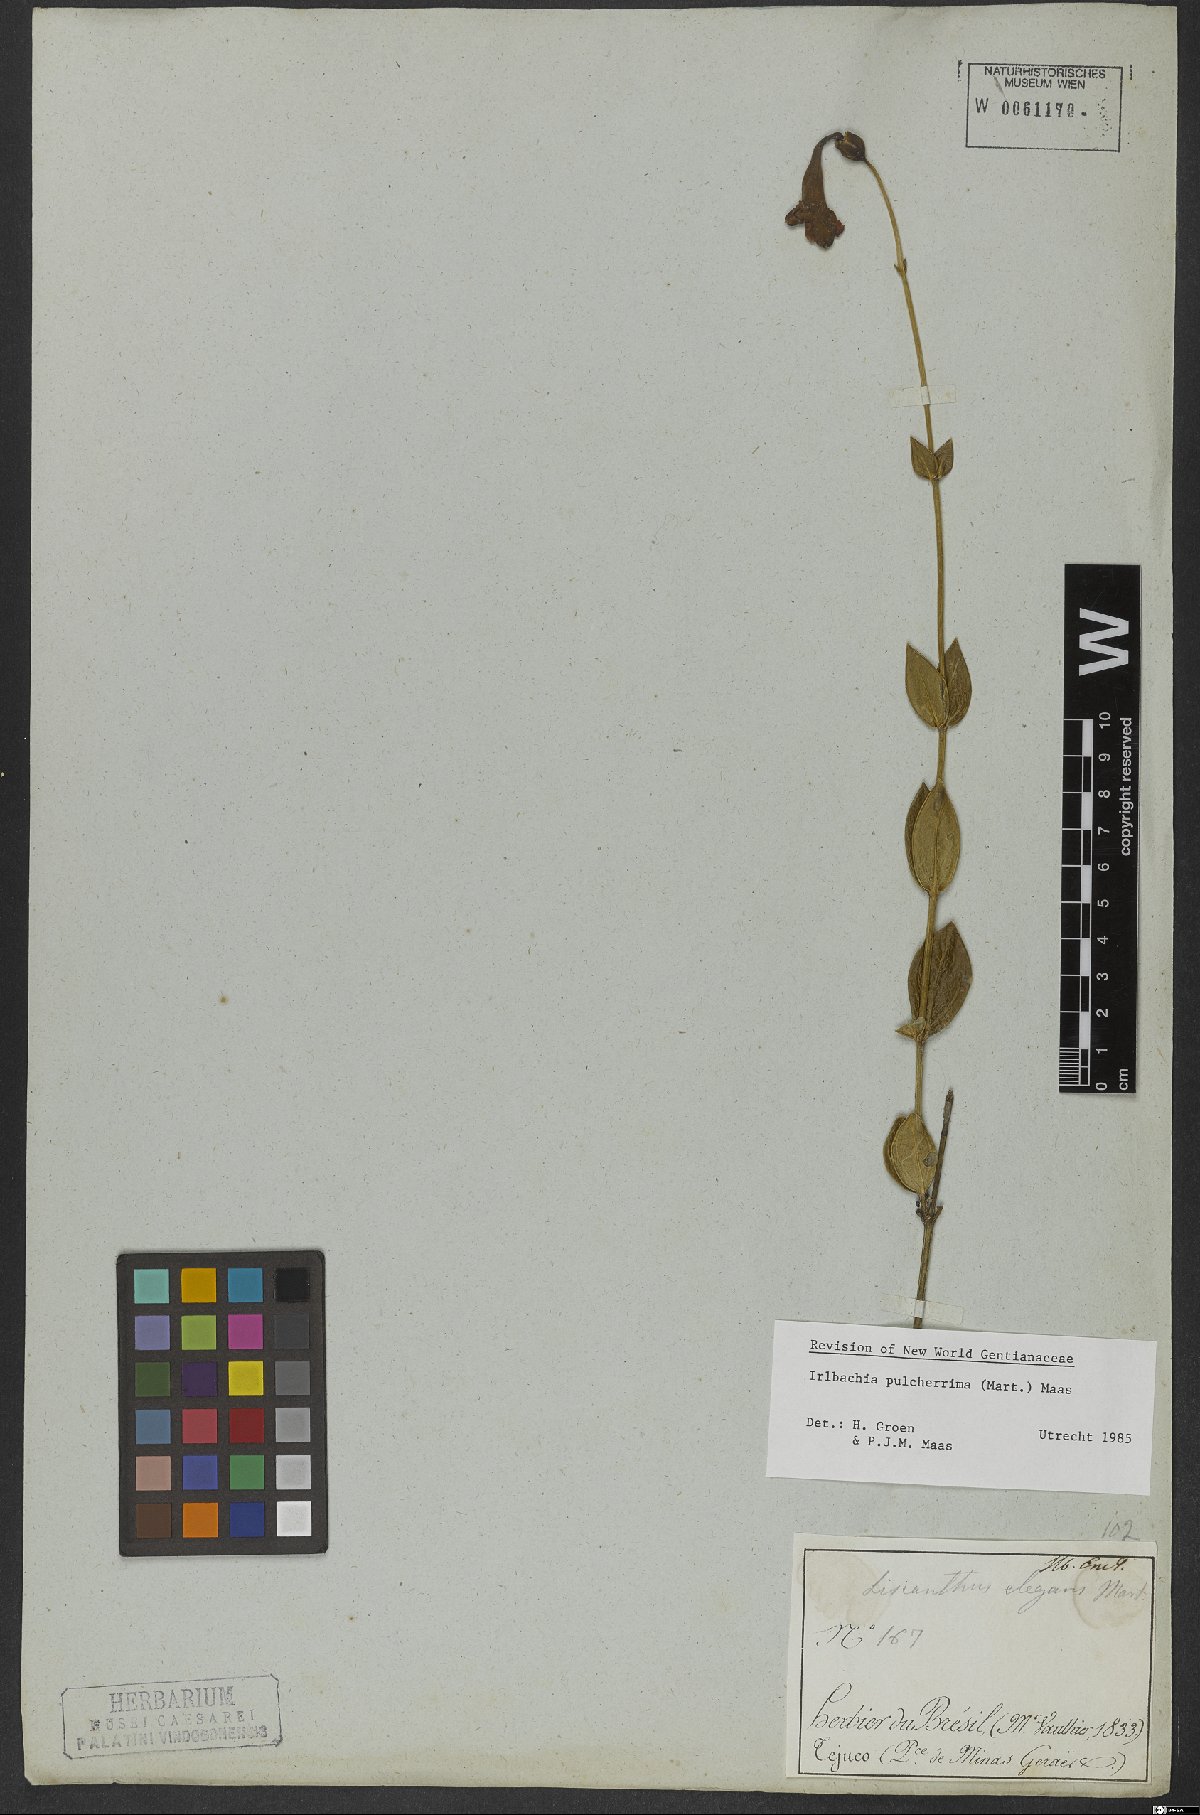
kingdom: Plantae
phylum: Tracheophyta
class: Magnoliopsida
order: Gentianales
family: Gentianaceae
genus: Calolisianthus
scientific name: Calolisianthus pulcherrimus
